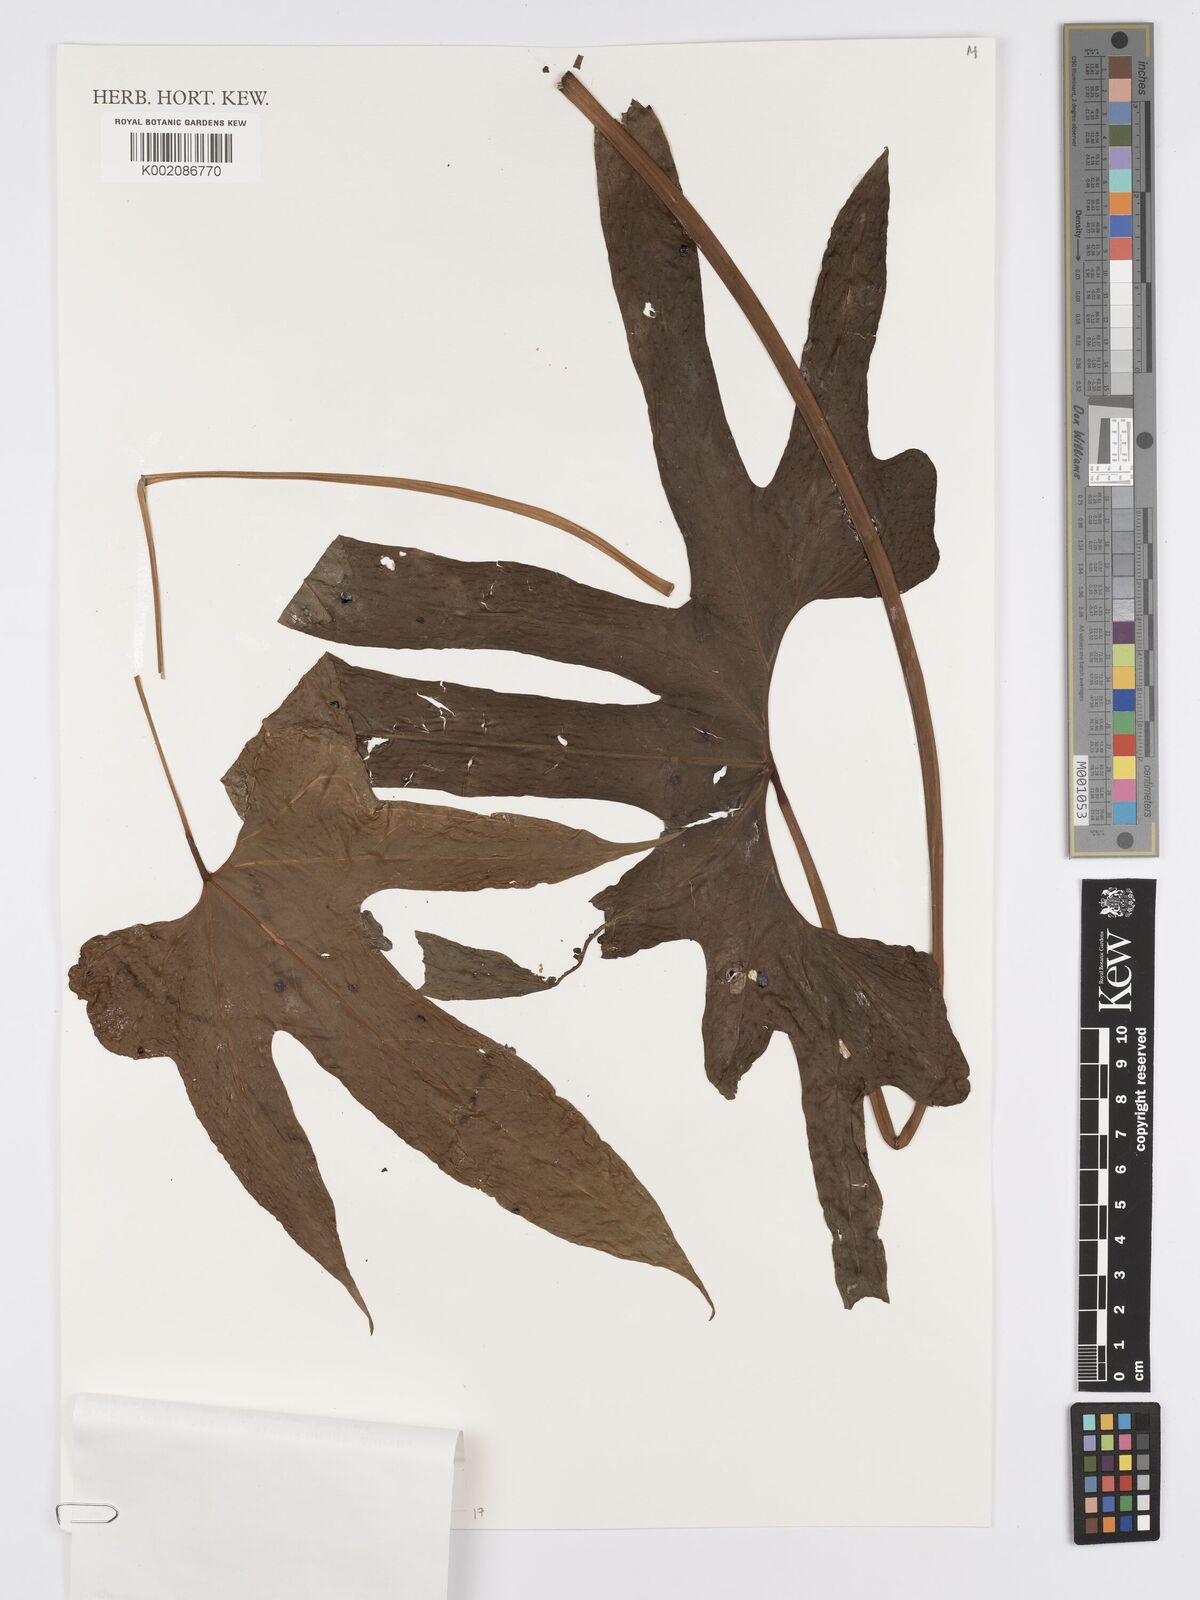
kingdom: Plantae
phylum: Tracheophyta
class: Liliopsida
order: Alismatales
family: Araceae
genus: Anthurium
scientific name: Anthurium pedatum
